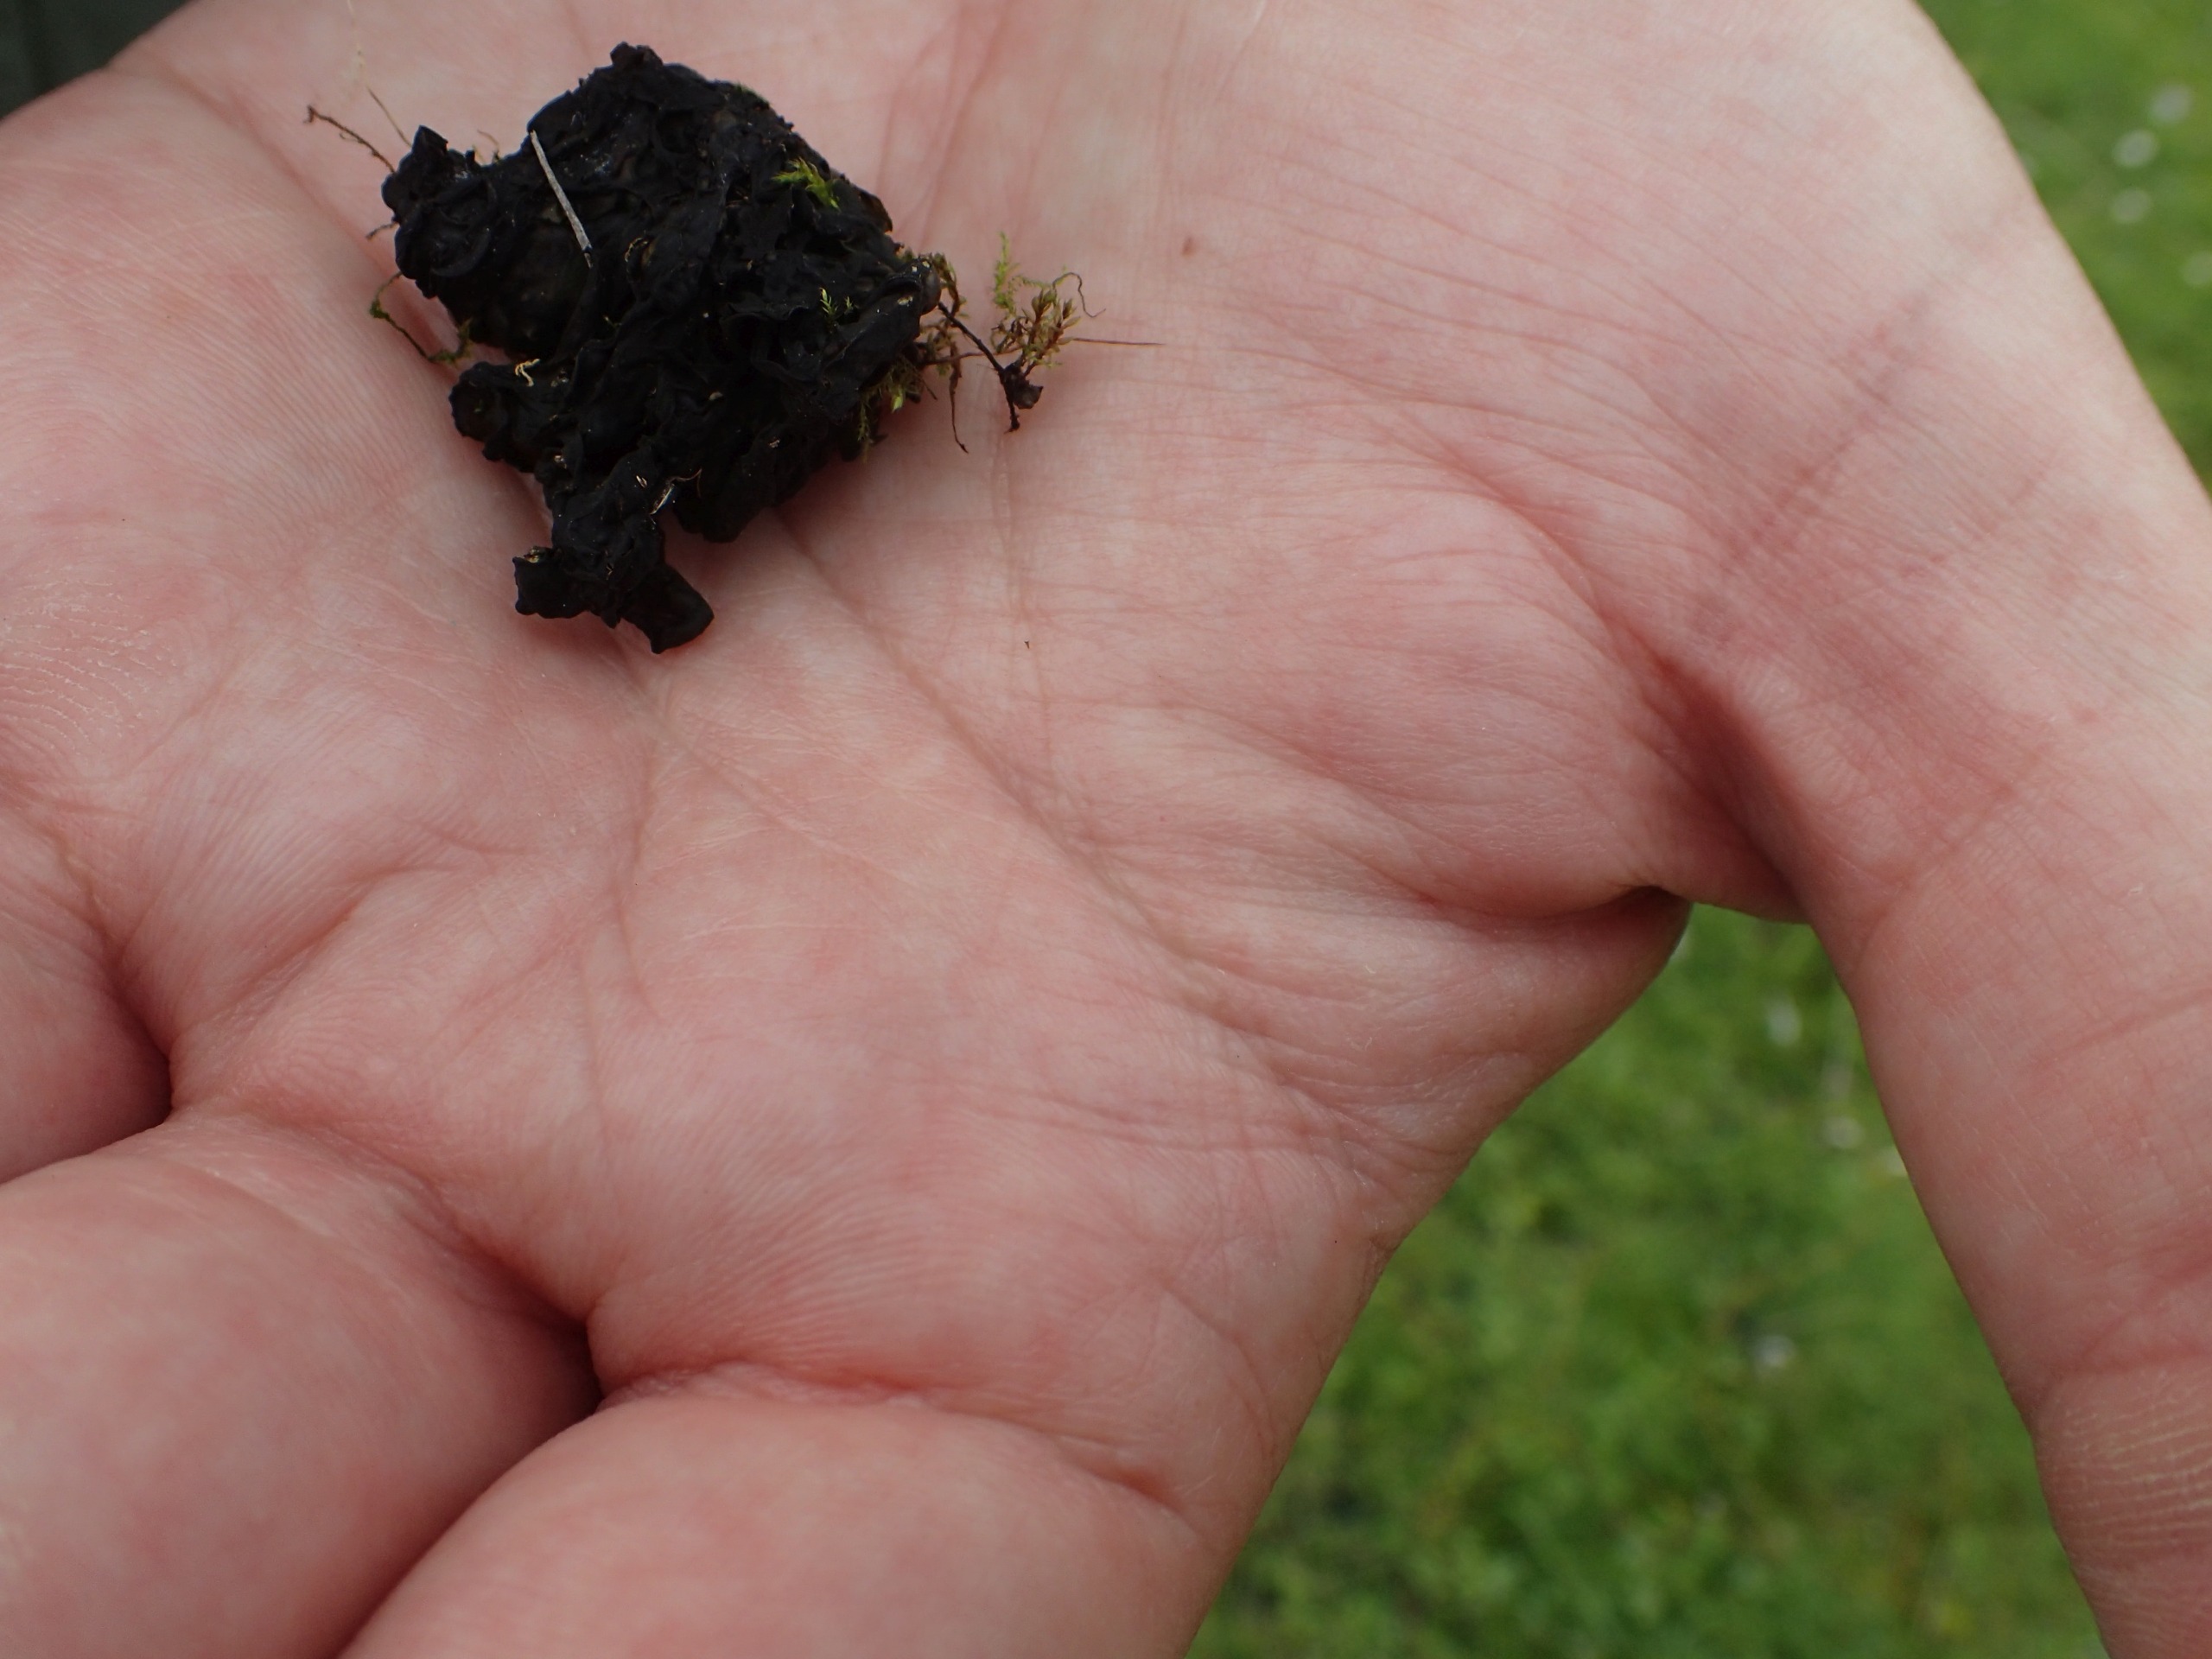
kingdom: Bacteria
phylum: Cyanobacteria
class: Cyanobacteriia
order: Cyanobacteriales
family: Nostocaceae
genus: Nostoc
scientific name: Nostoc commune
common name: Skyfald
